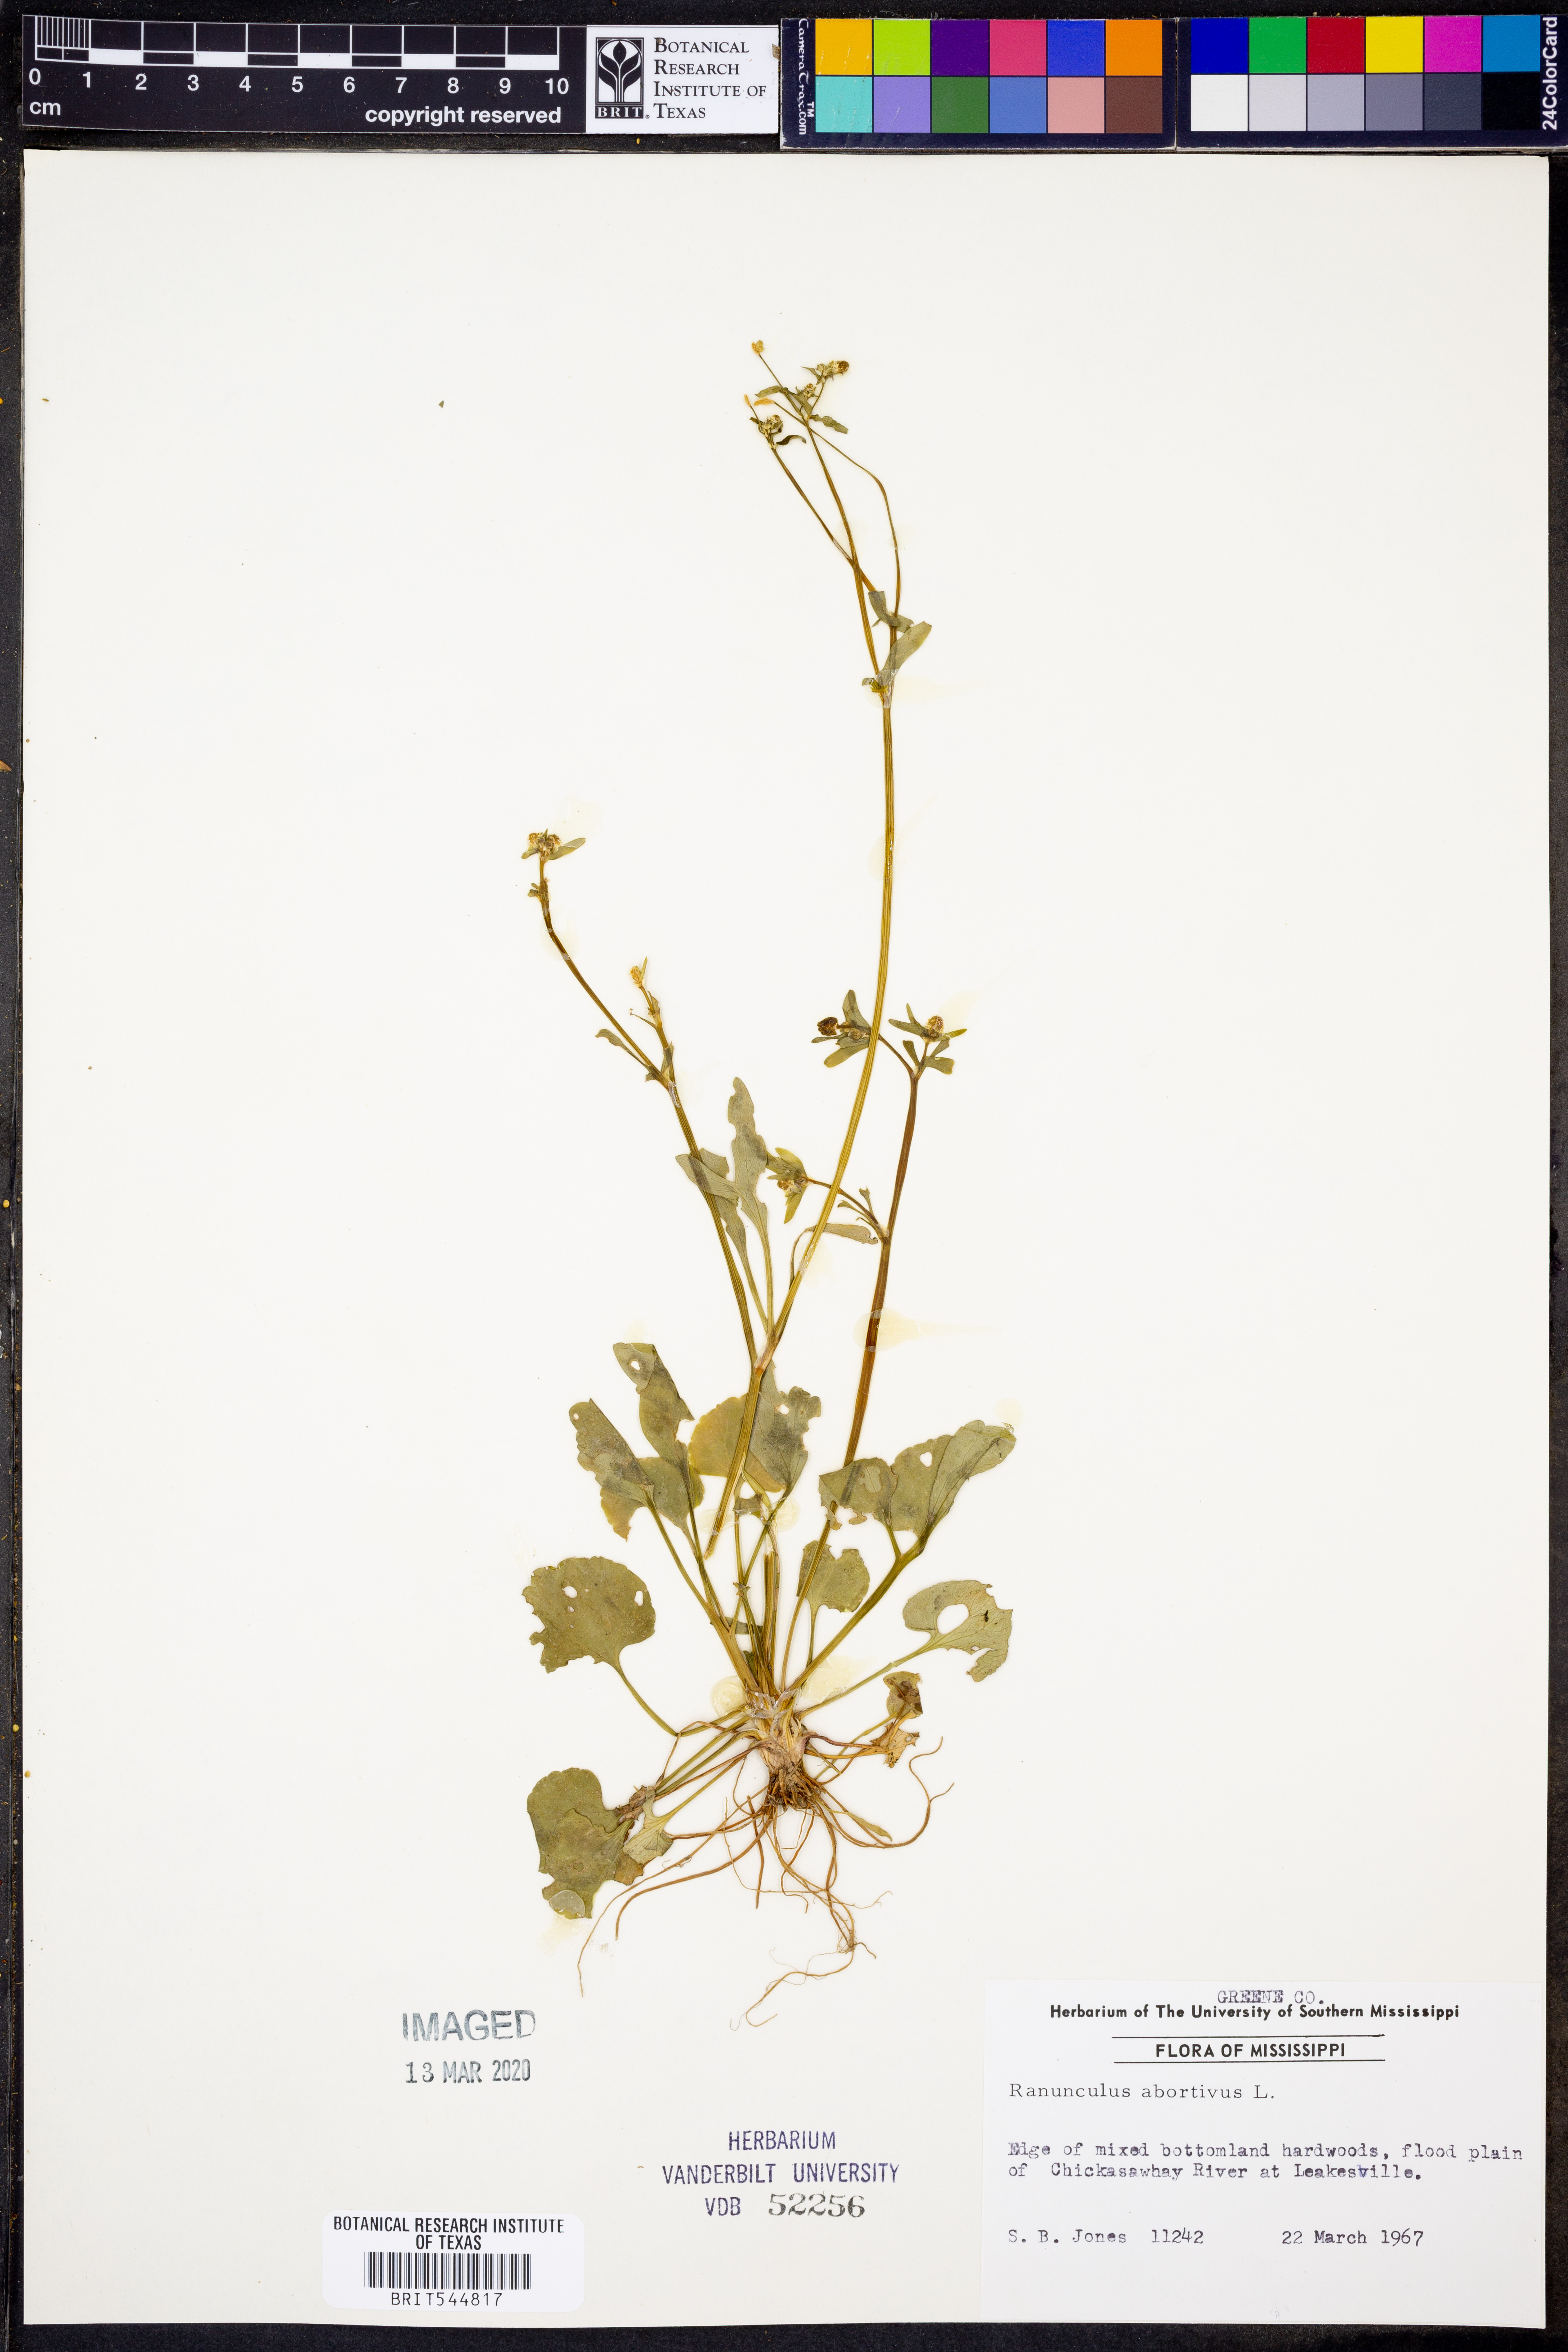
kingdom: Plantae
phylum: Tracheophyta
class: Magnoliopsida
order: Ranunculales
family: Ranunculaceae
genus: Ranunculus
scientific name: Ranunculus abortivus
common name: Early wood buttercup
